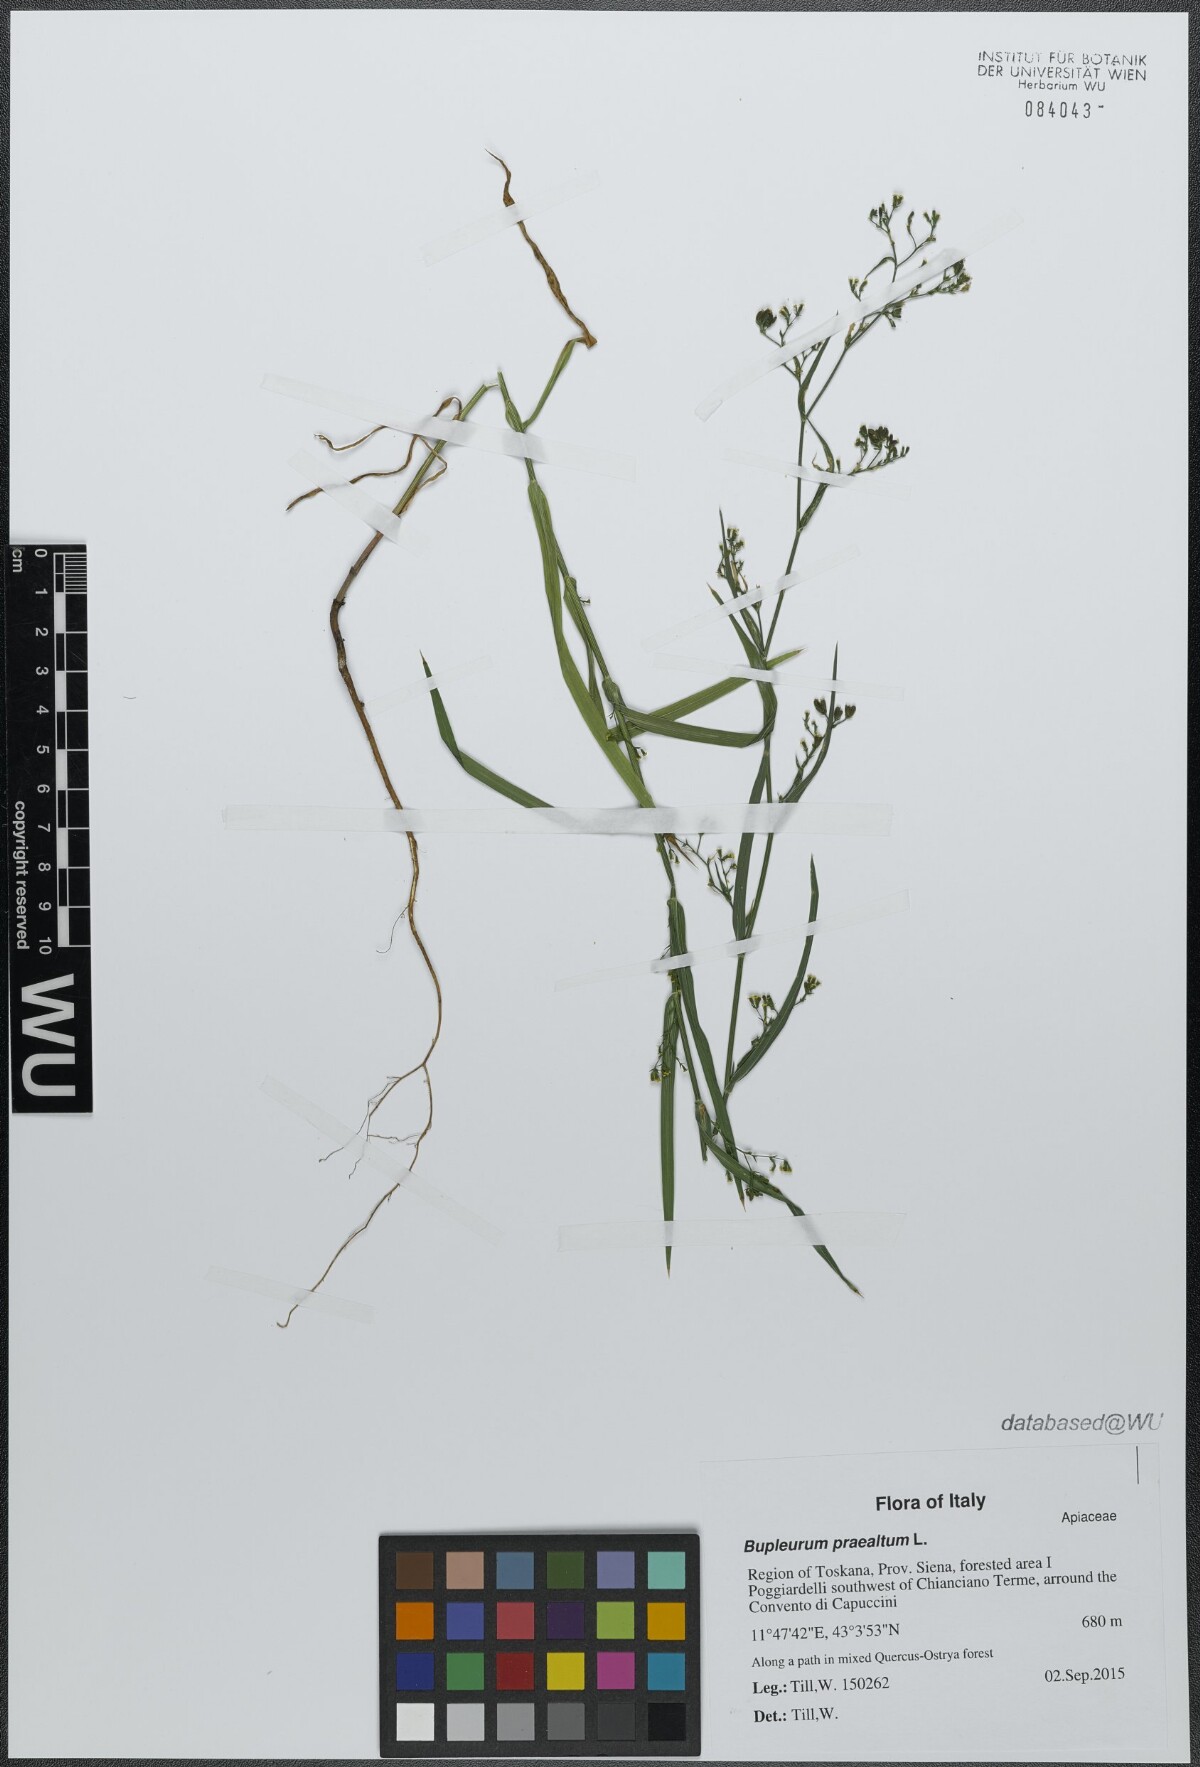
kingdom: Plantae
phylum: Tracheophyta
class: Magnoliopsida
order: Apiales
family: Apiaceae
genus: Bupleurum
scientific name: Bupleurum praealtum
